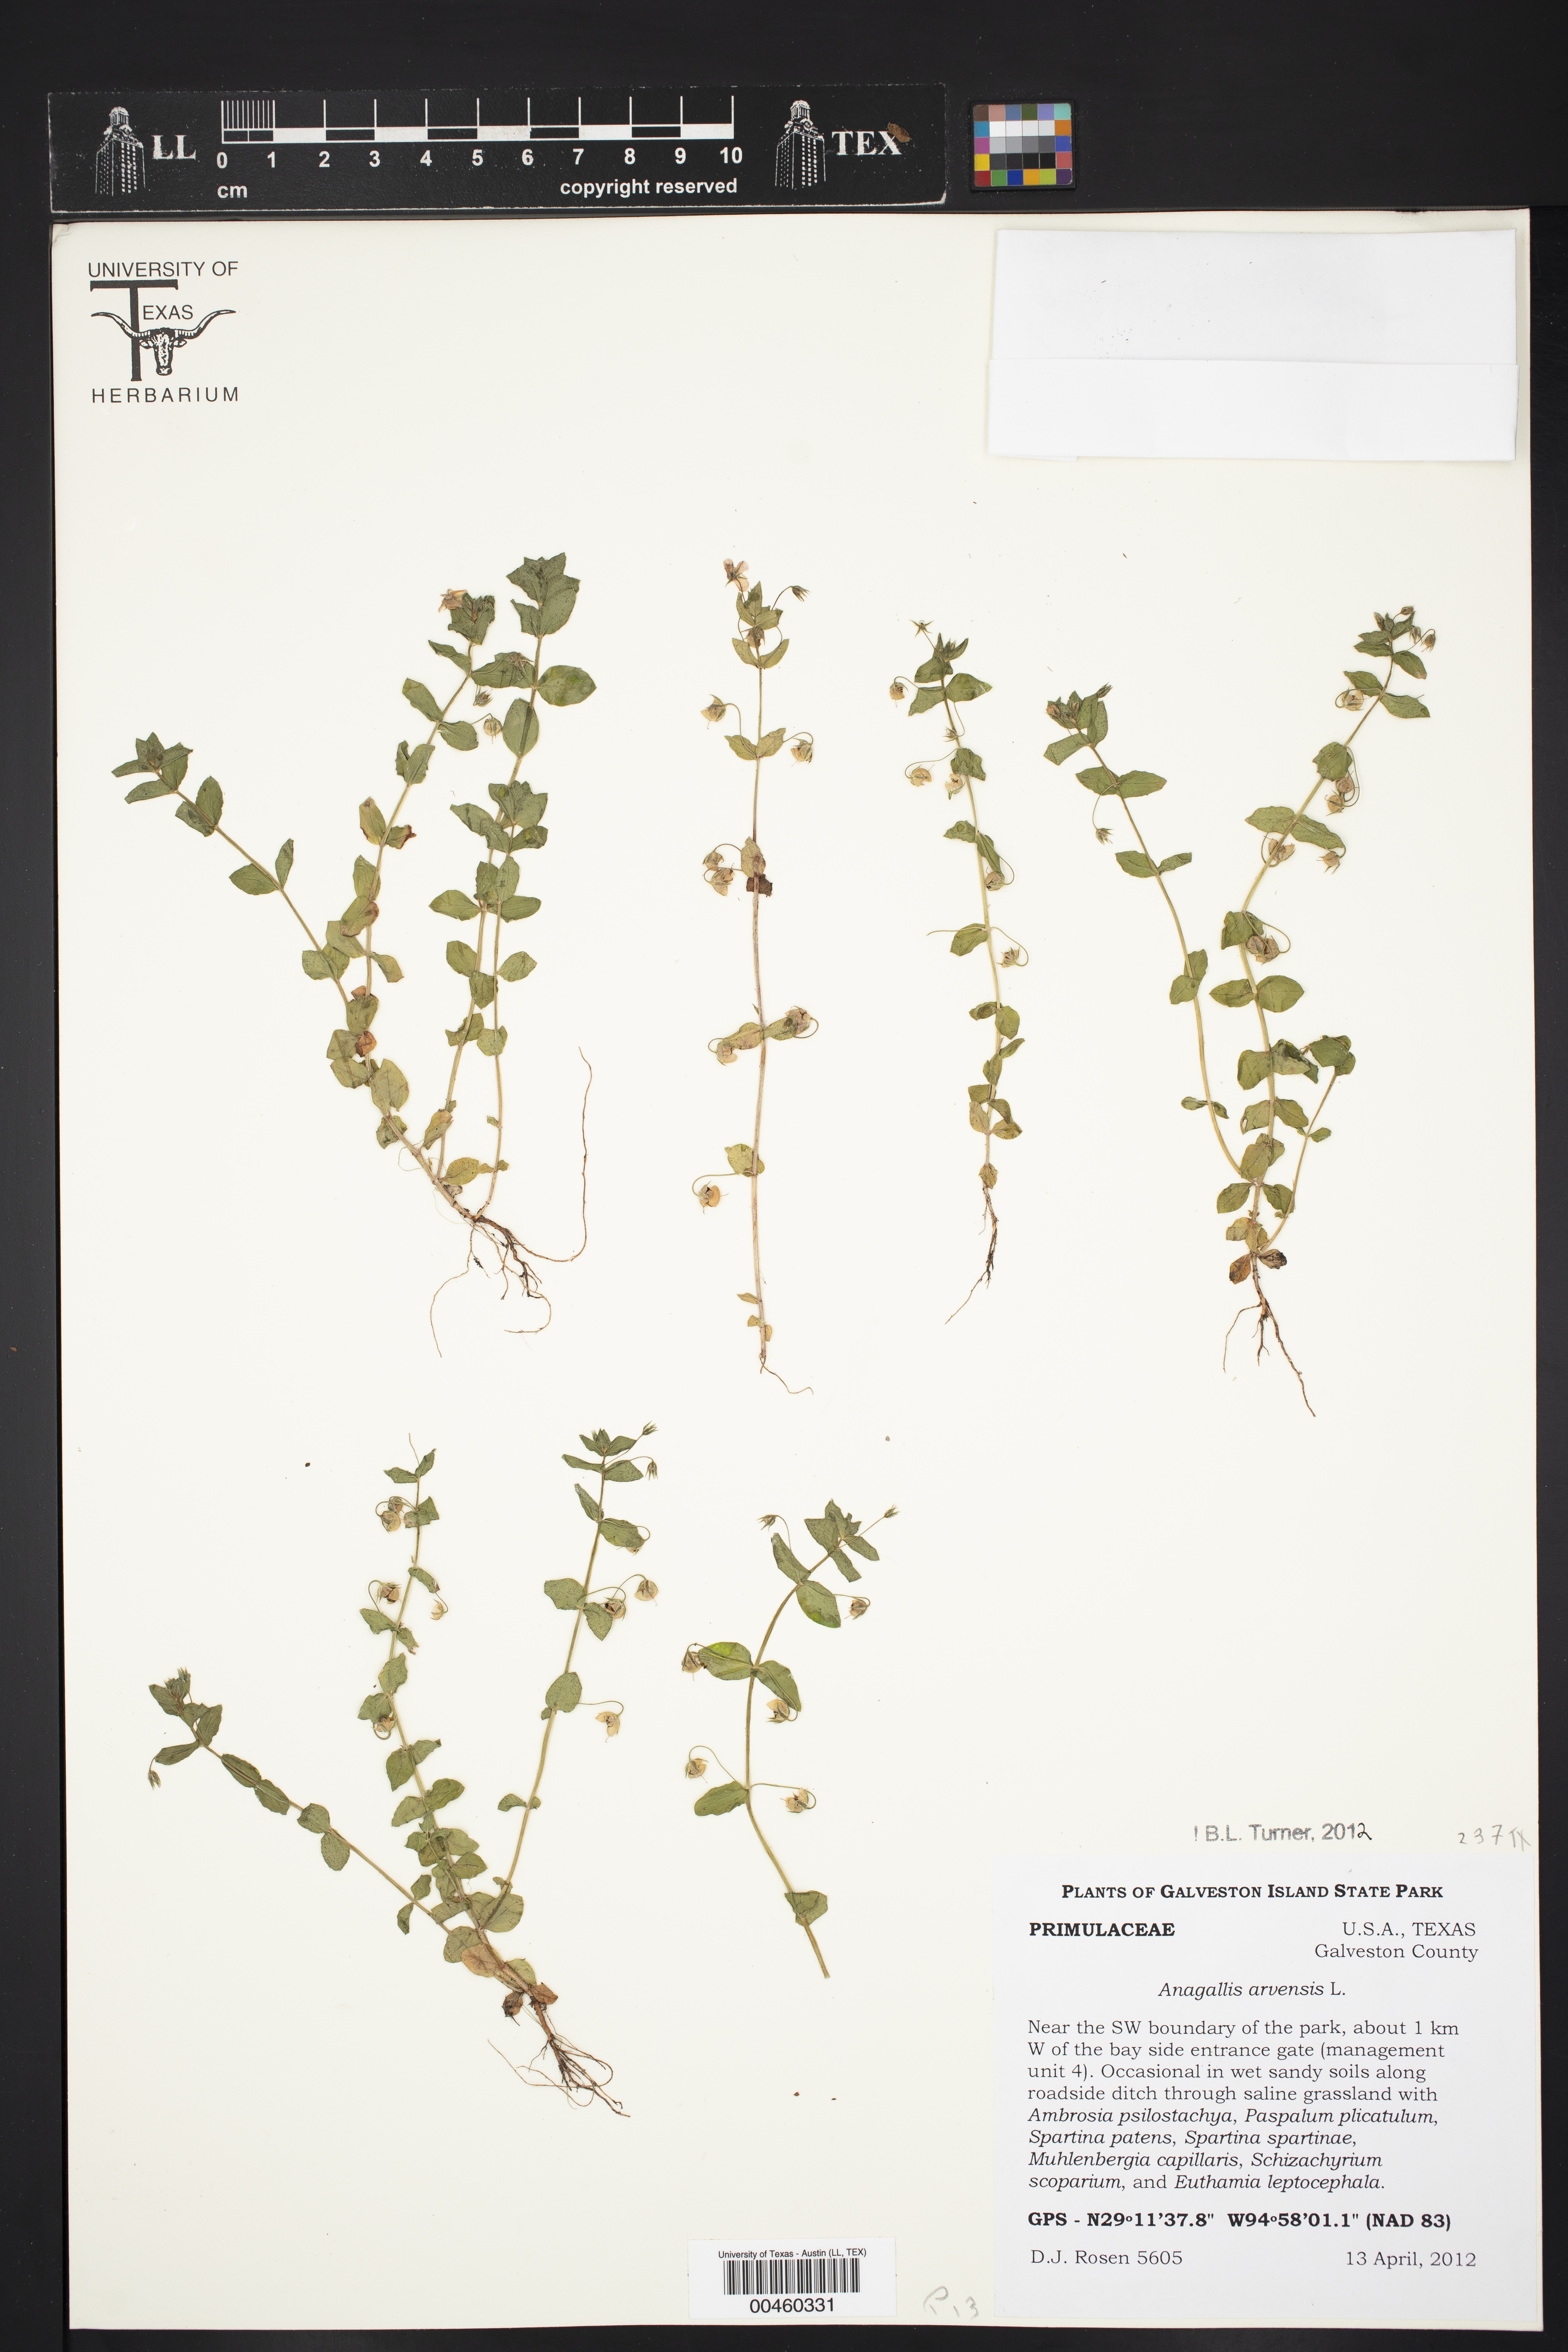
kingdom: Plantae
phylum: Tracheophyta
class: Magnoliopsida
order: Ericales
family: Primulaceae
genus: Lysimachia
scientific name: Lysimachia arvensis
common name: Scarlet pimpernel
